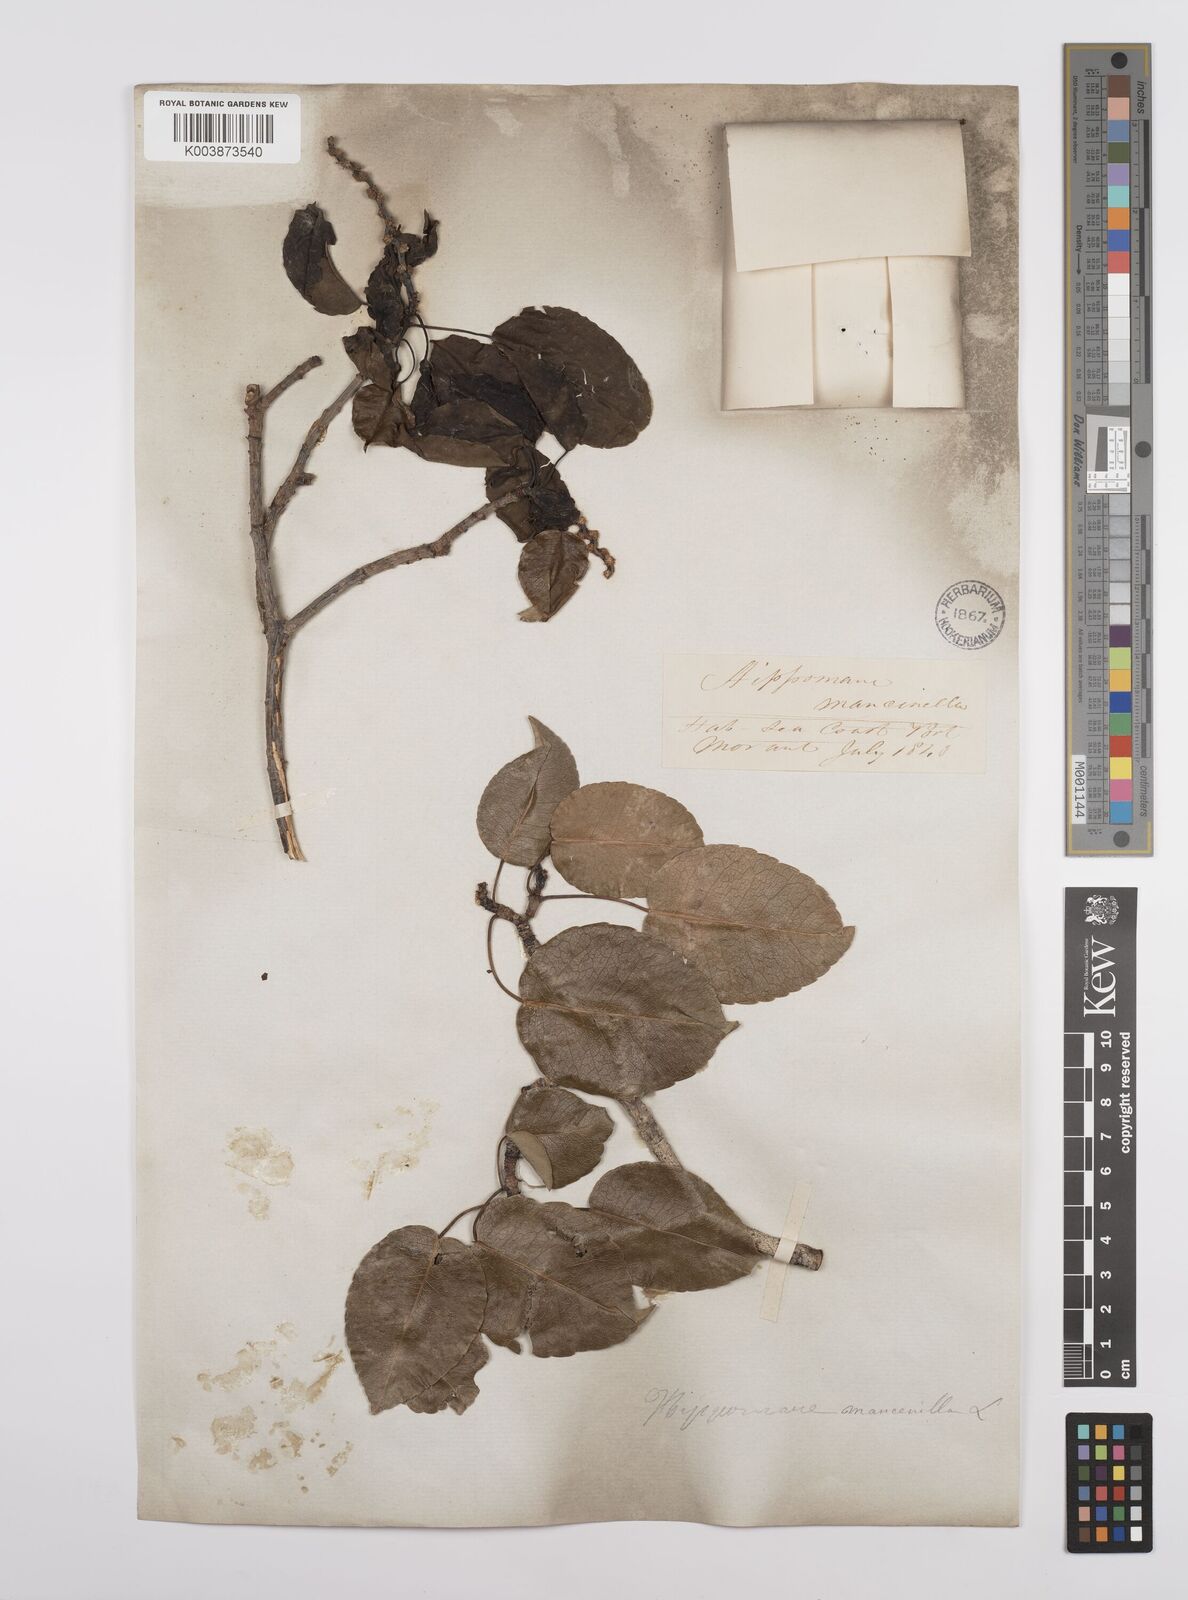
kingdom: Plantae
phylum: Tracheophyta
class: Magnoliopsida
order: Malpighiales
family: Euphorbiaceae
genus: Hippomane
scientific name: Hippomane mancinella
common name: Manchineel
